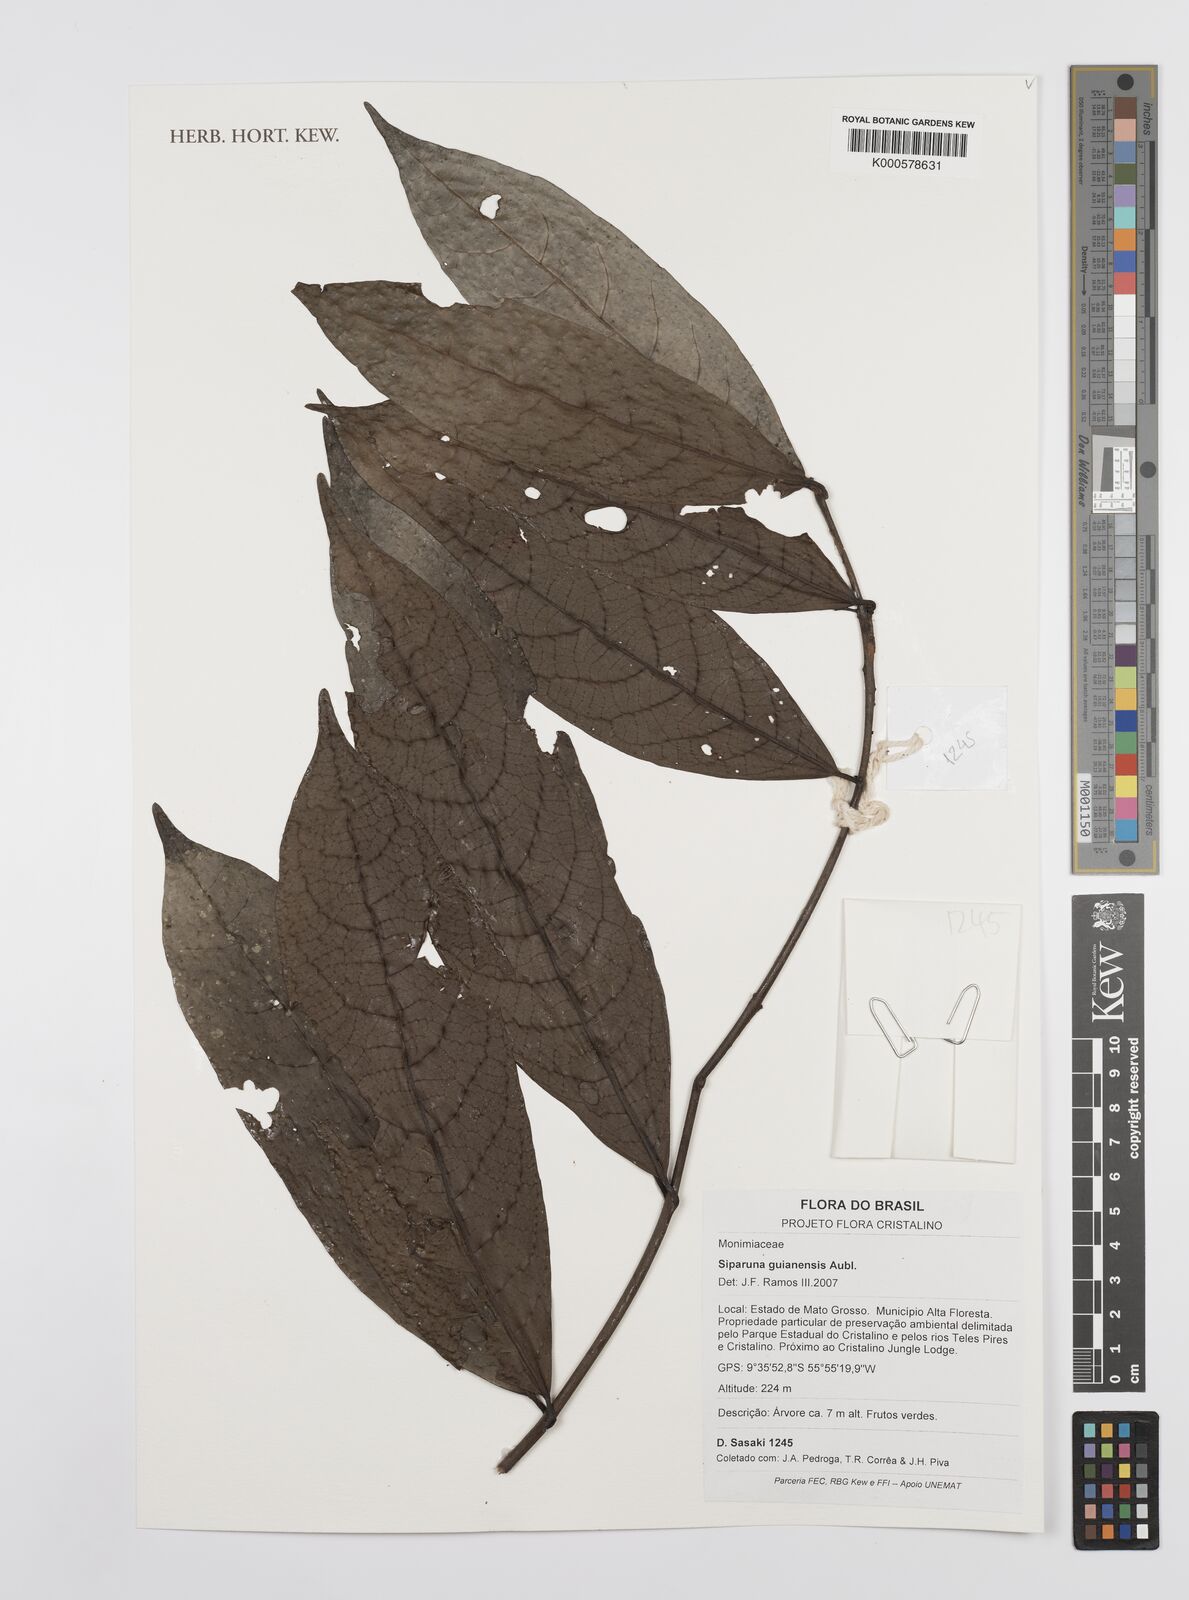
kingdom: Plantae
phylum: Tracheophyta
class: Magnoliopsida
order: Laurales
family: Siparunaceae
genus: Siparuna
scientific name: Siparuna guianensis
